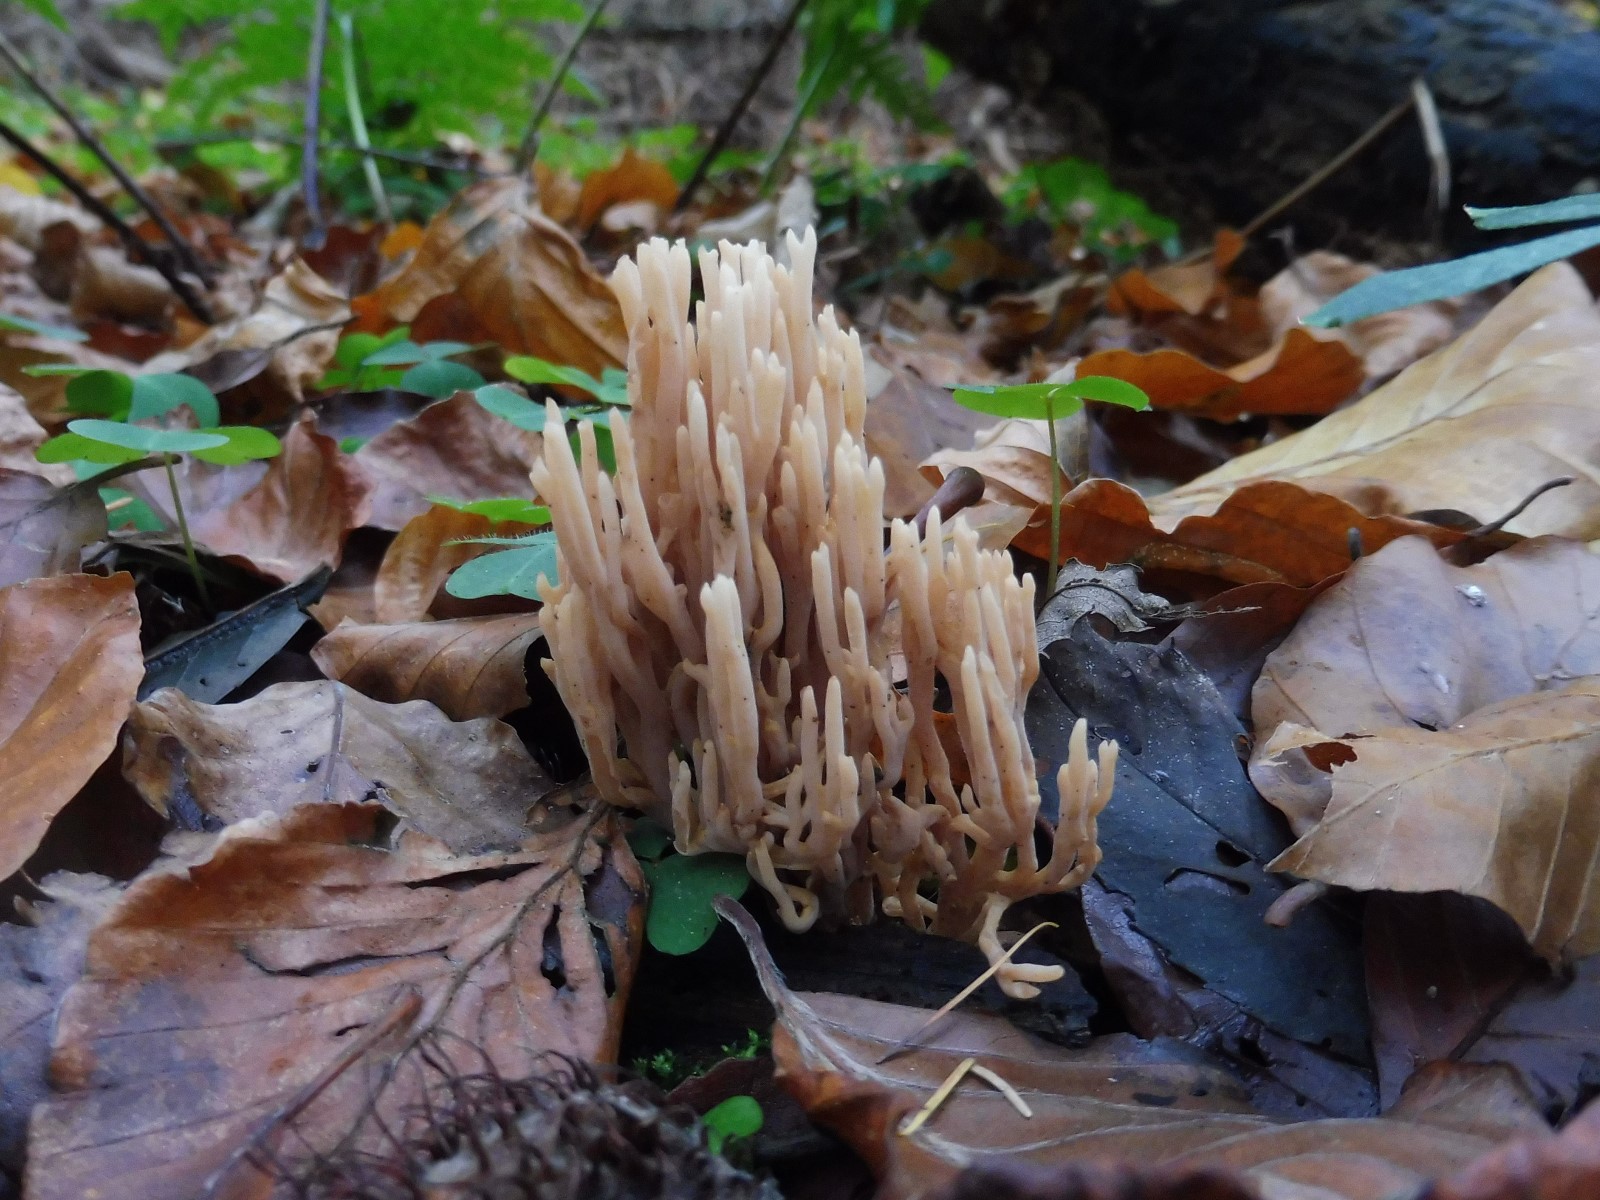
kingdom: Fungi
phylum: Basidiomycota
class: Agaricomycetes
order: Gomphales
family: Gomphaceae
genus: Ramaria
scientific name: Ramaria stricta
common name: rank koralsvamp
